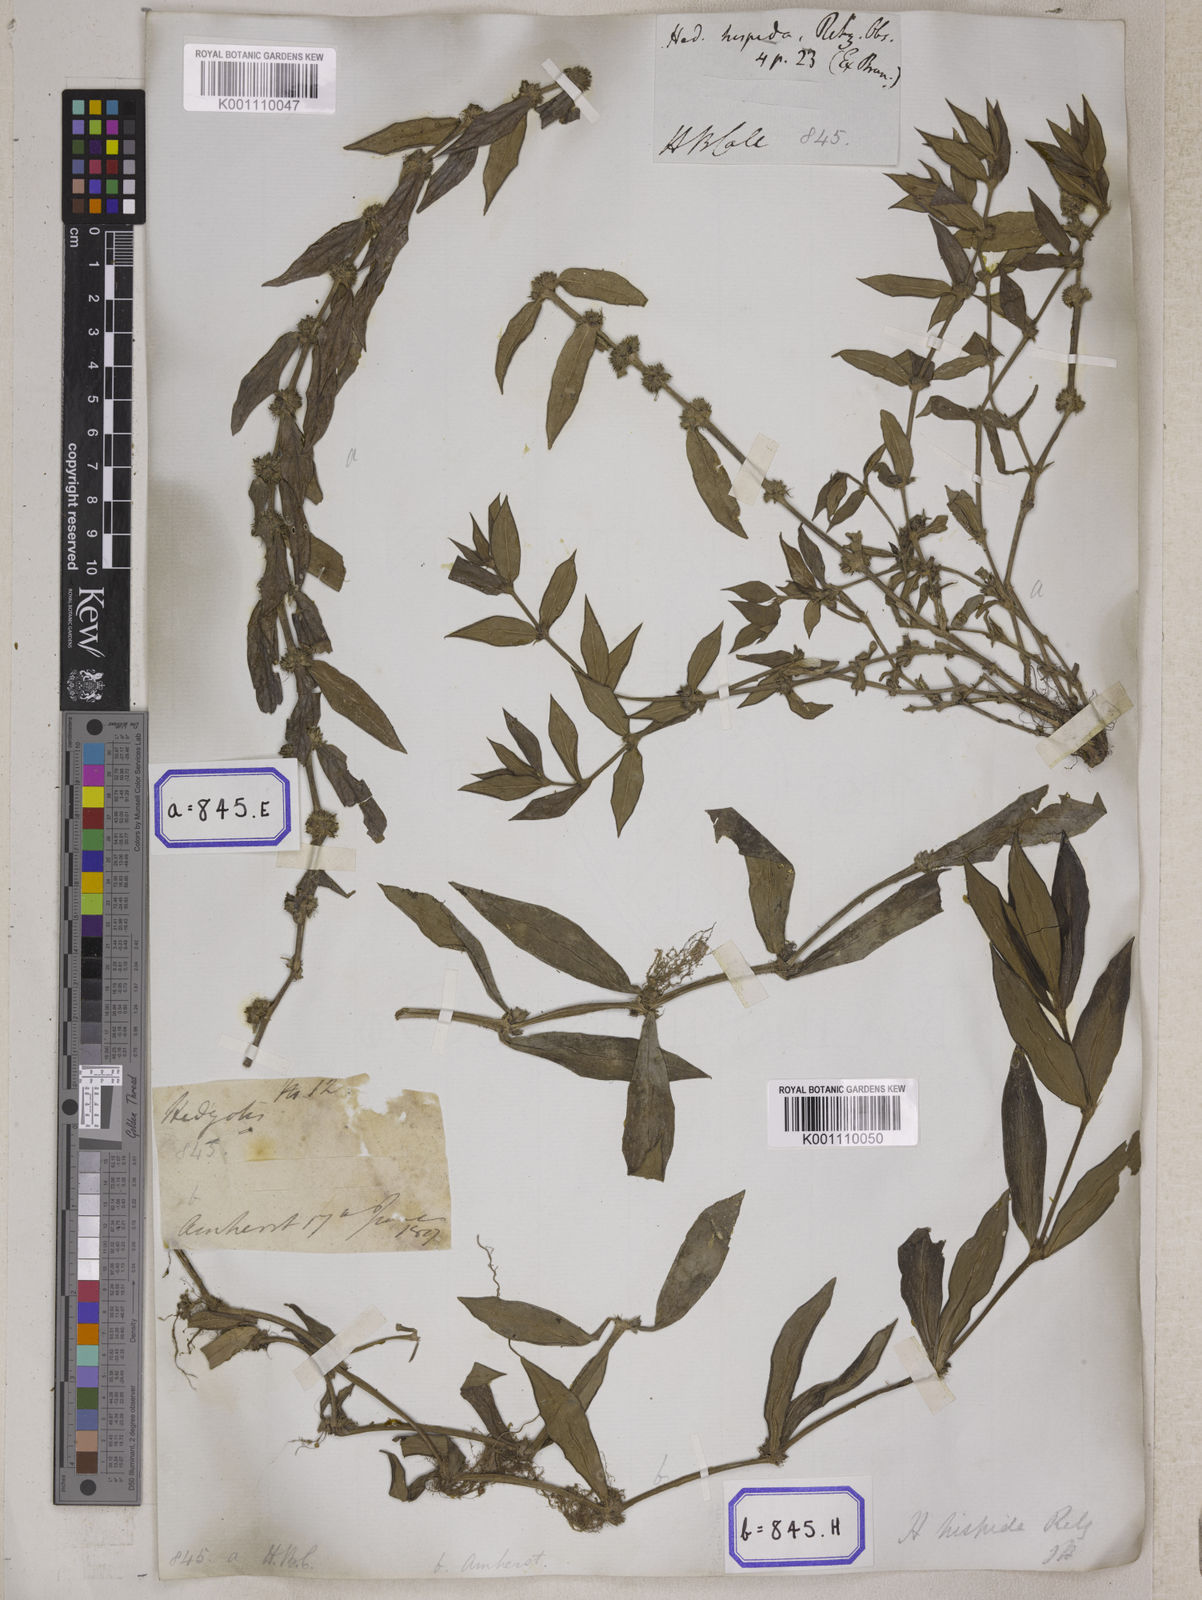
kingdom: Plantae
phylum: Tracheophyta
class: Magnoliopsida
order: Gentianales
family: Rubiaceae
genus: Scleromitrion
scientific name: Scleromitrion verticillatum
